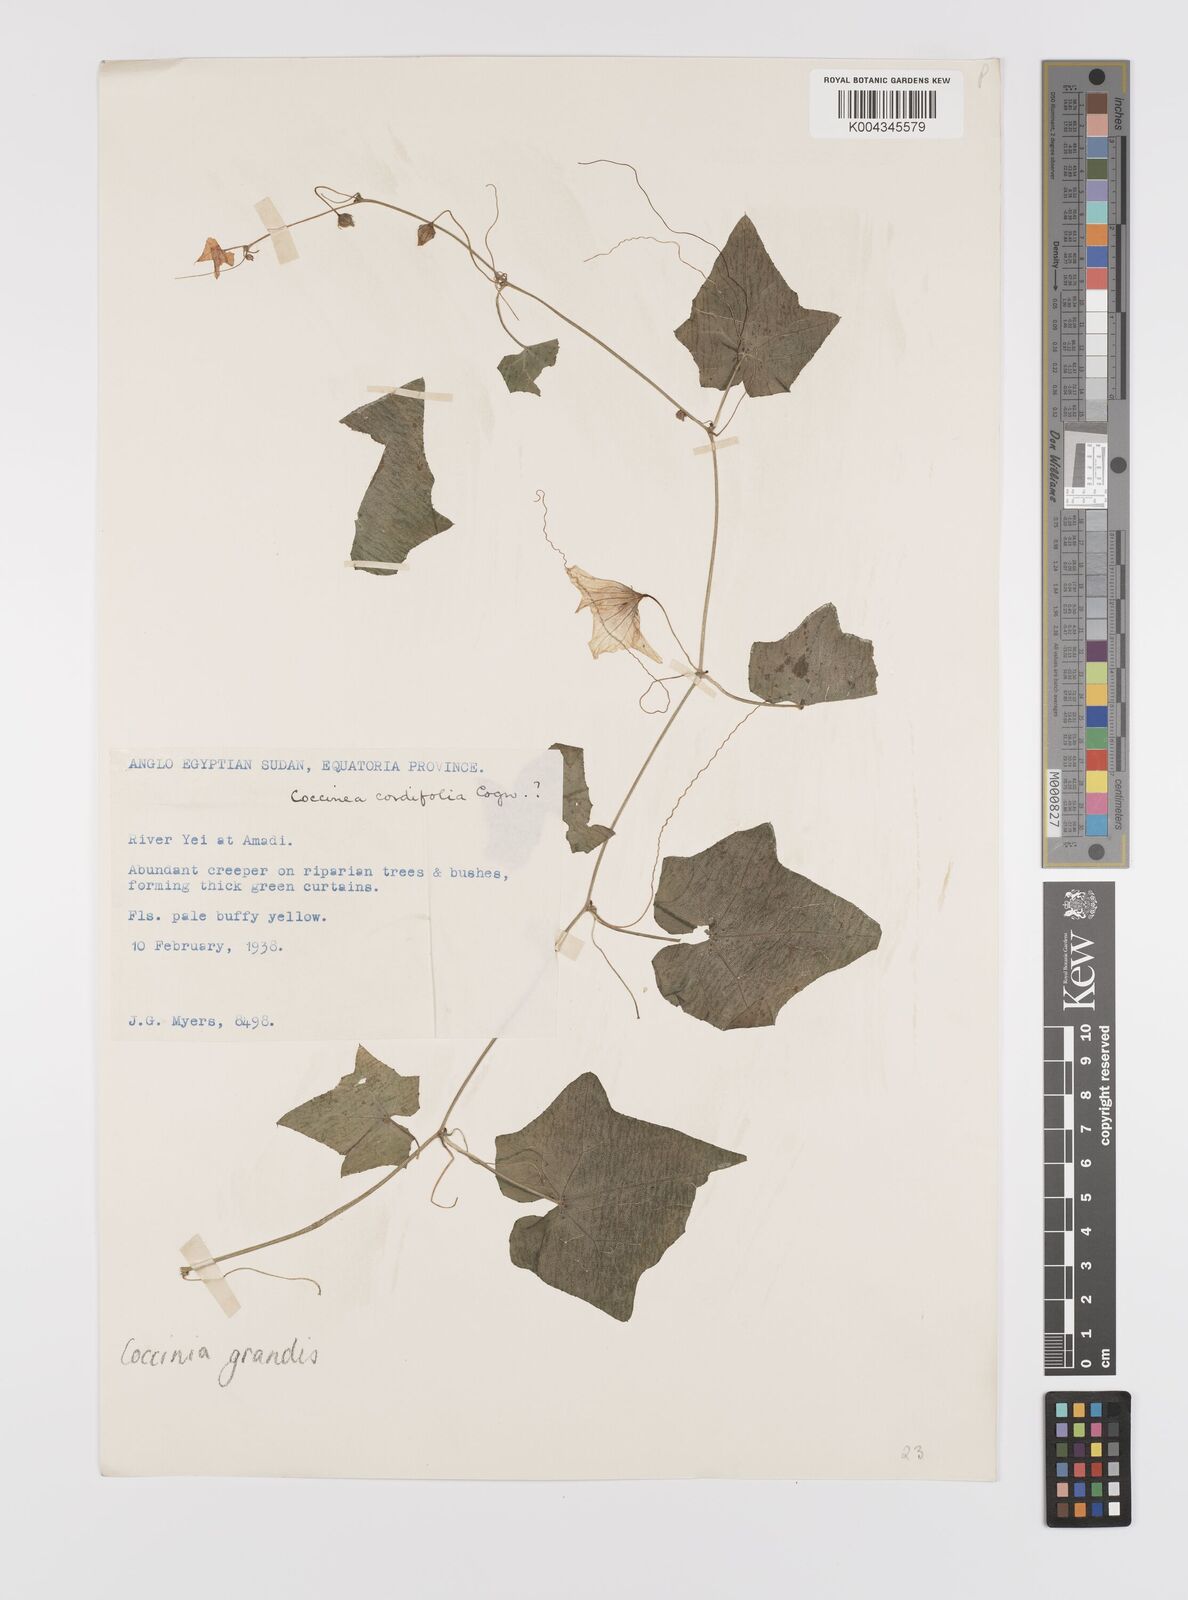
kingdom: Plantae
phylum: Tracheophyta
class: Magnoliopsida
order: Cucurbitales
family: Cucurbitaceae
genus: Coccinia
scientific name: Coccinia grandis
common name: Ivy gourd
